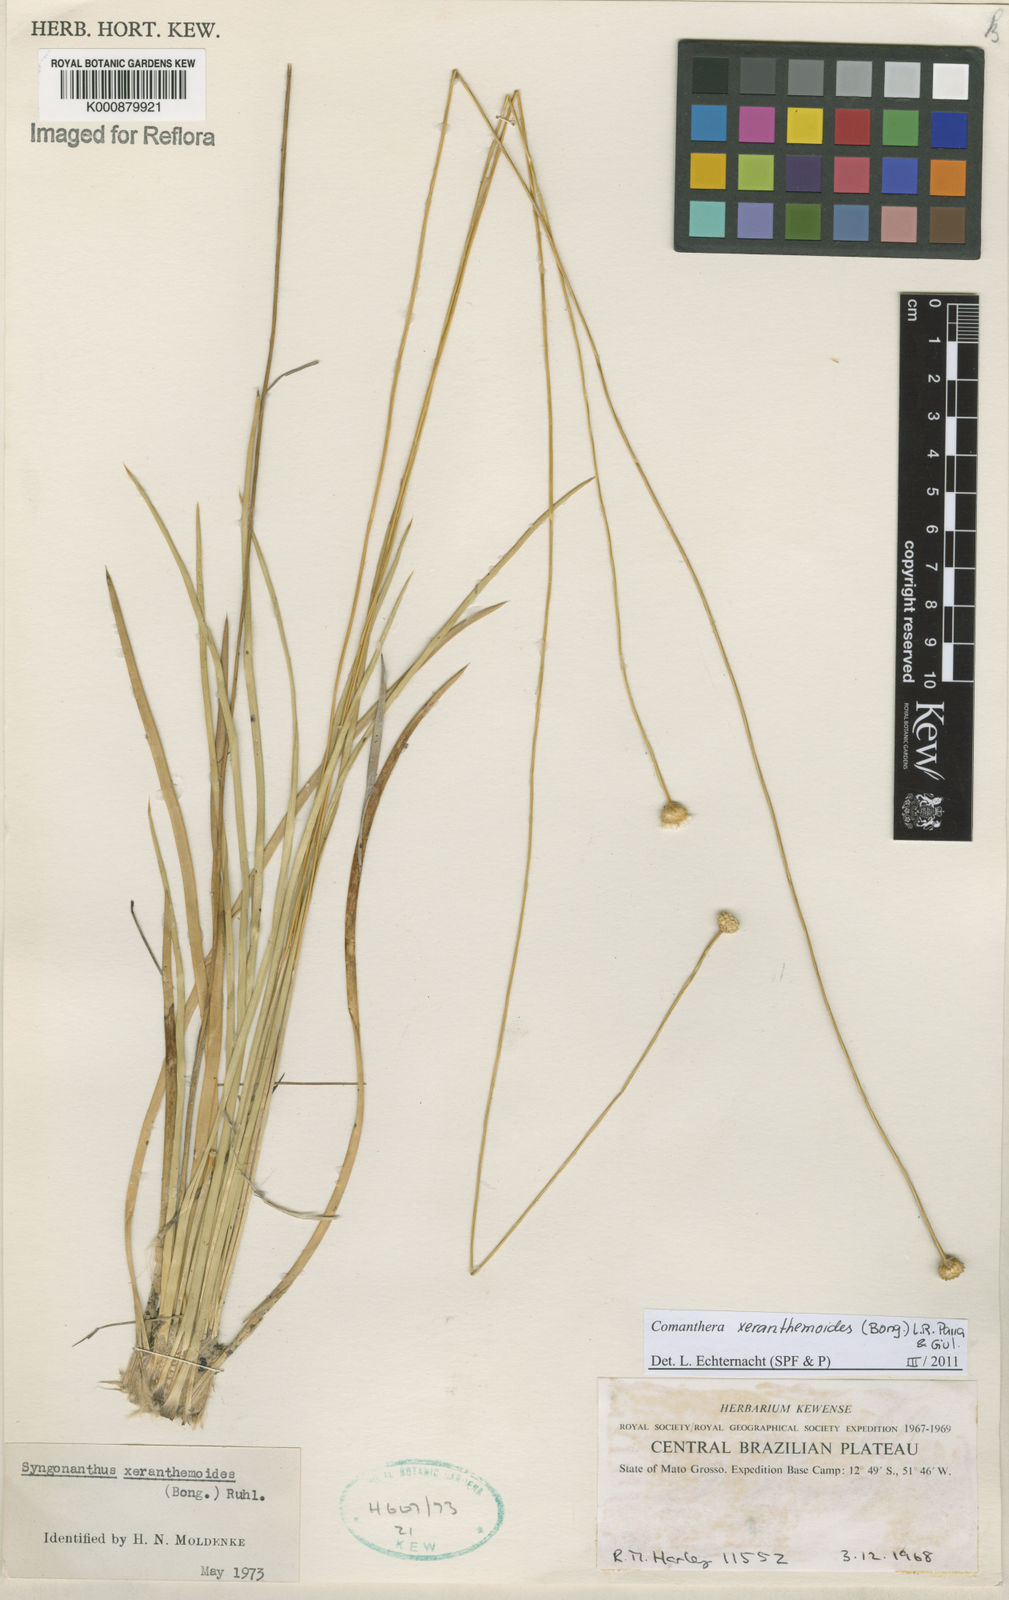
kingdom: Plantae
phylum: Tracheophyta
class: Liliopsida
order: Poales
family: Eriocaulaceae
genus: Comanthera
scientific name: Comanthera xeranthemoides
